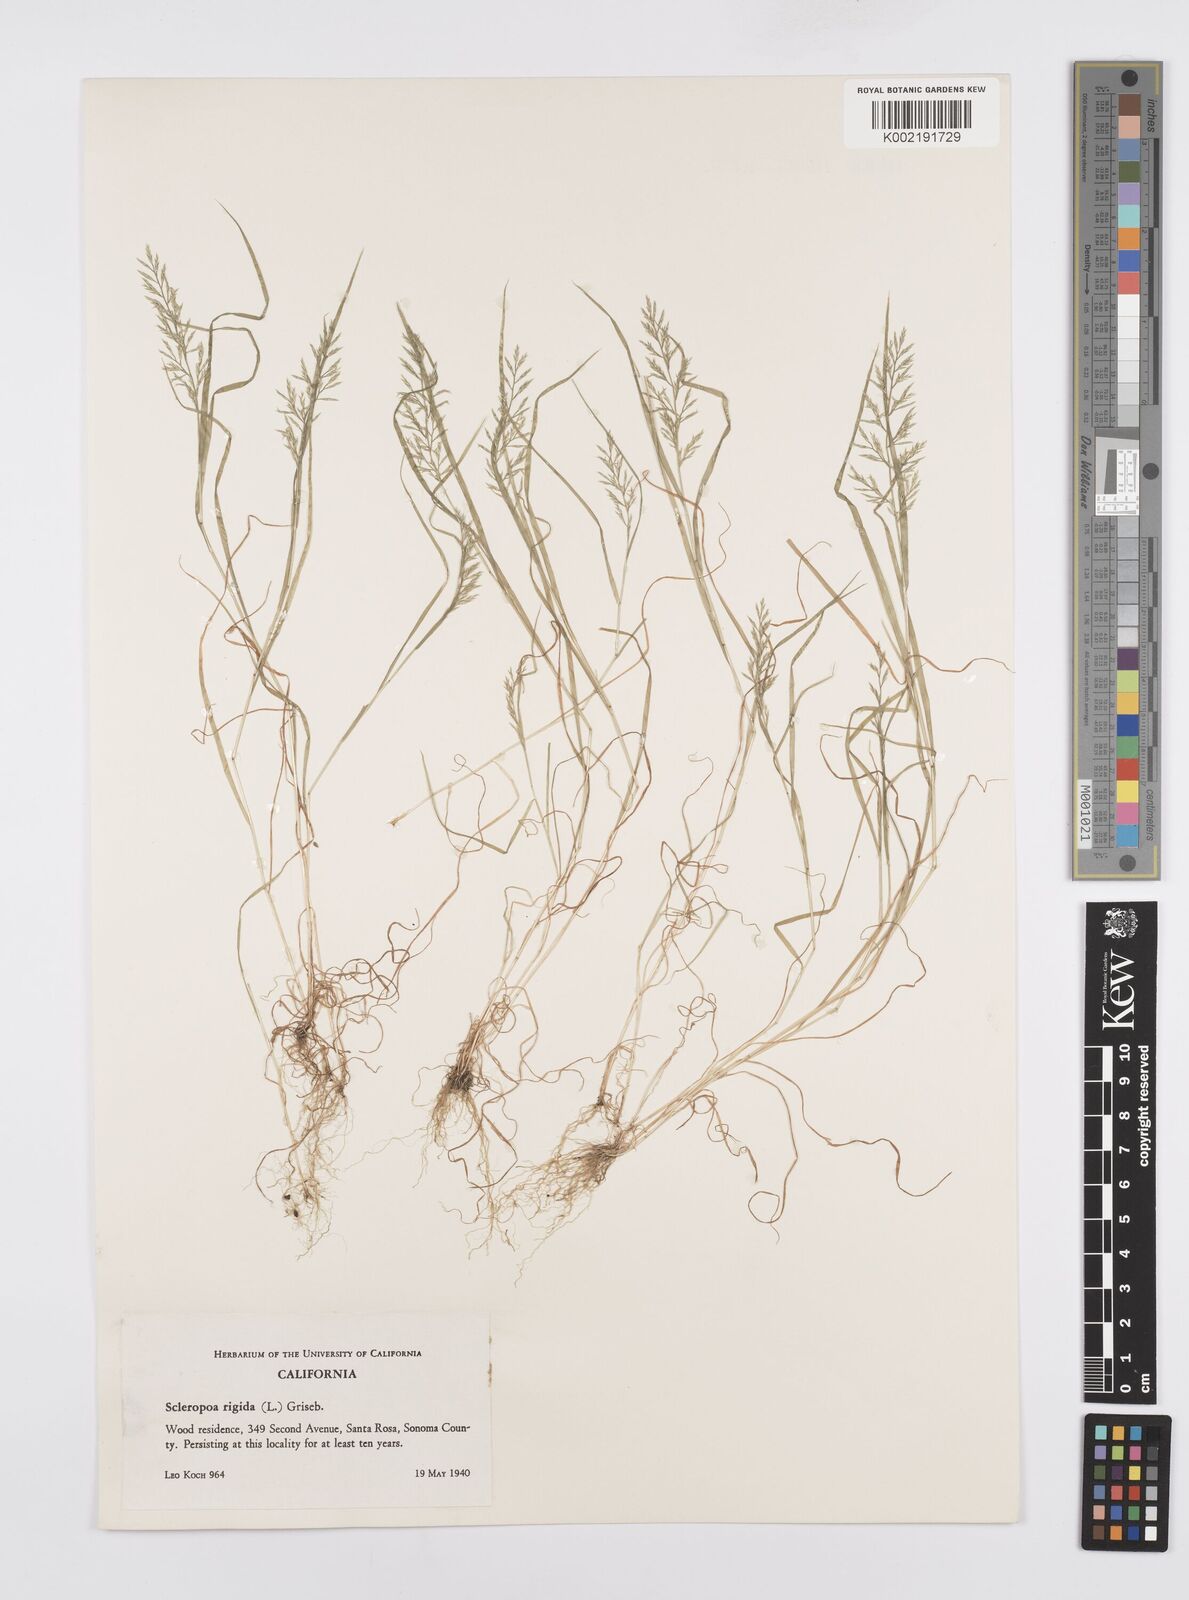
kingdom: Plantae
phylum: Tracheophyta
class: Liliopsida
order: Poales
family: Poaceae
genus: Catapodium
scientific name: Catapodium rigidum
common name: Fern-grass
